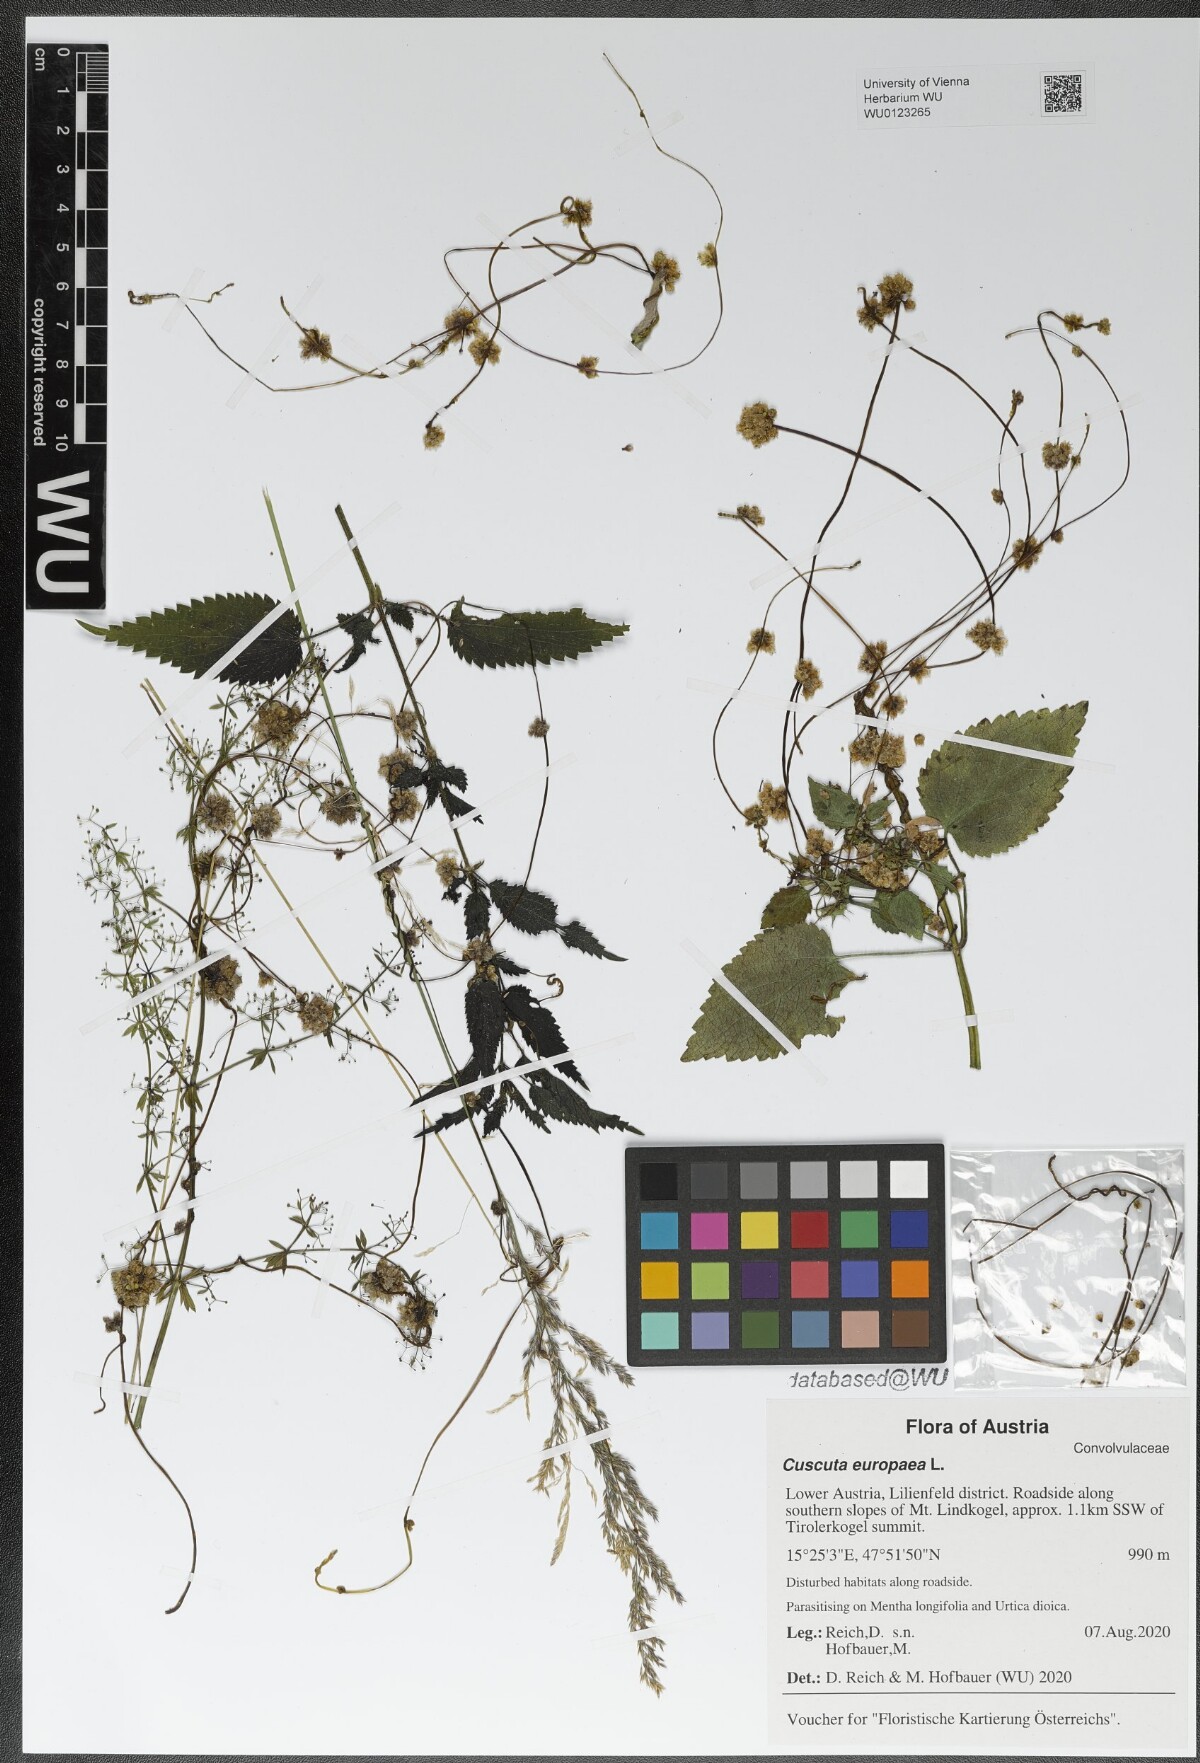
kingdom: Plantae
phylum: Tracheophyta
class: Magnoliopsida
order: Solanales
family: Convolvulaceae
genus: Cuscuta
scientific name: Cuscuta europaea
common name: Greater dodder
